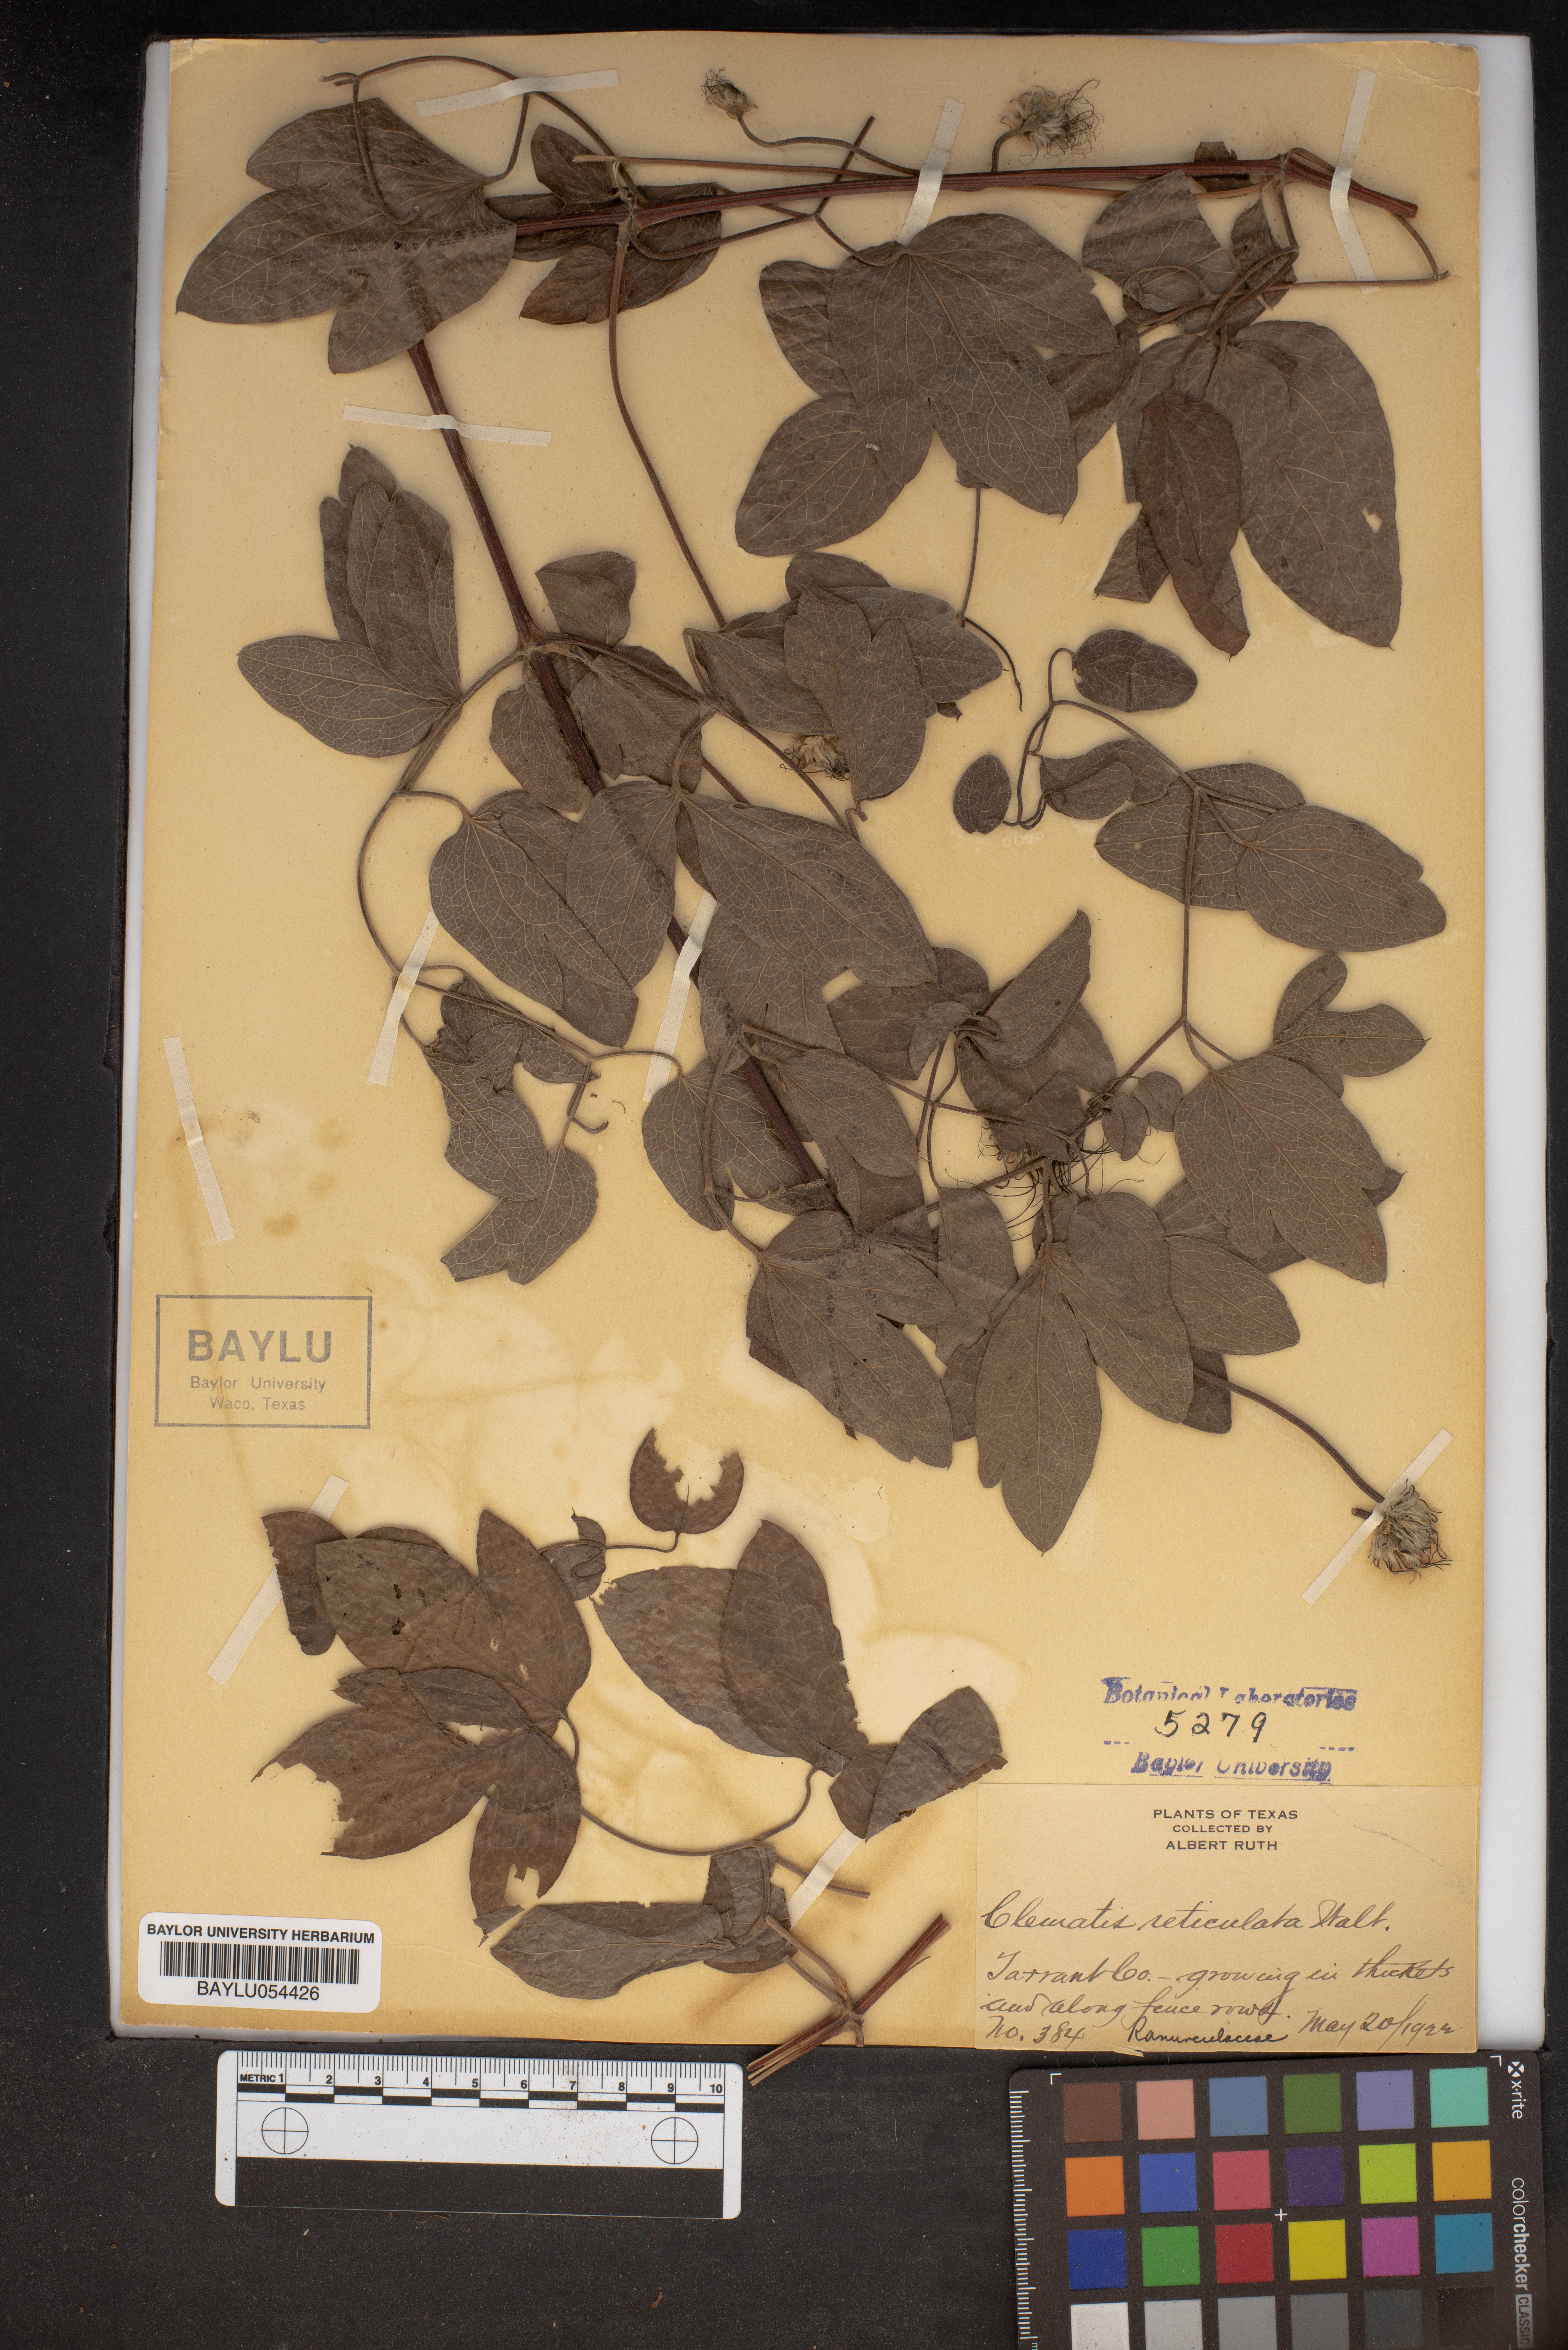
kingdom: Plantae
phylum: Tracheophyta
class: Magnoliopsida
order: Ranunculales
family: Ranunculaceae
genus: Clematis
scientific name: Clematis reticulata
